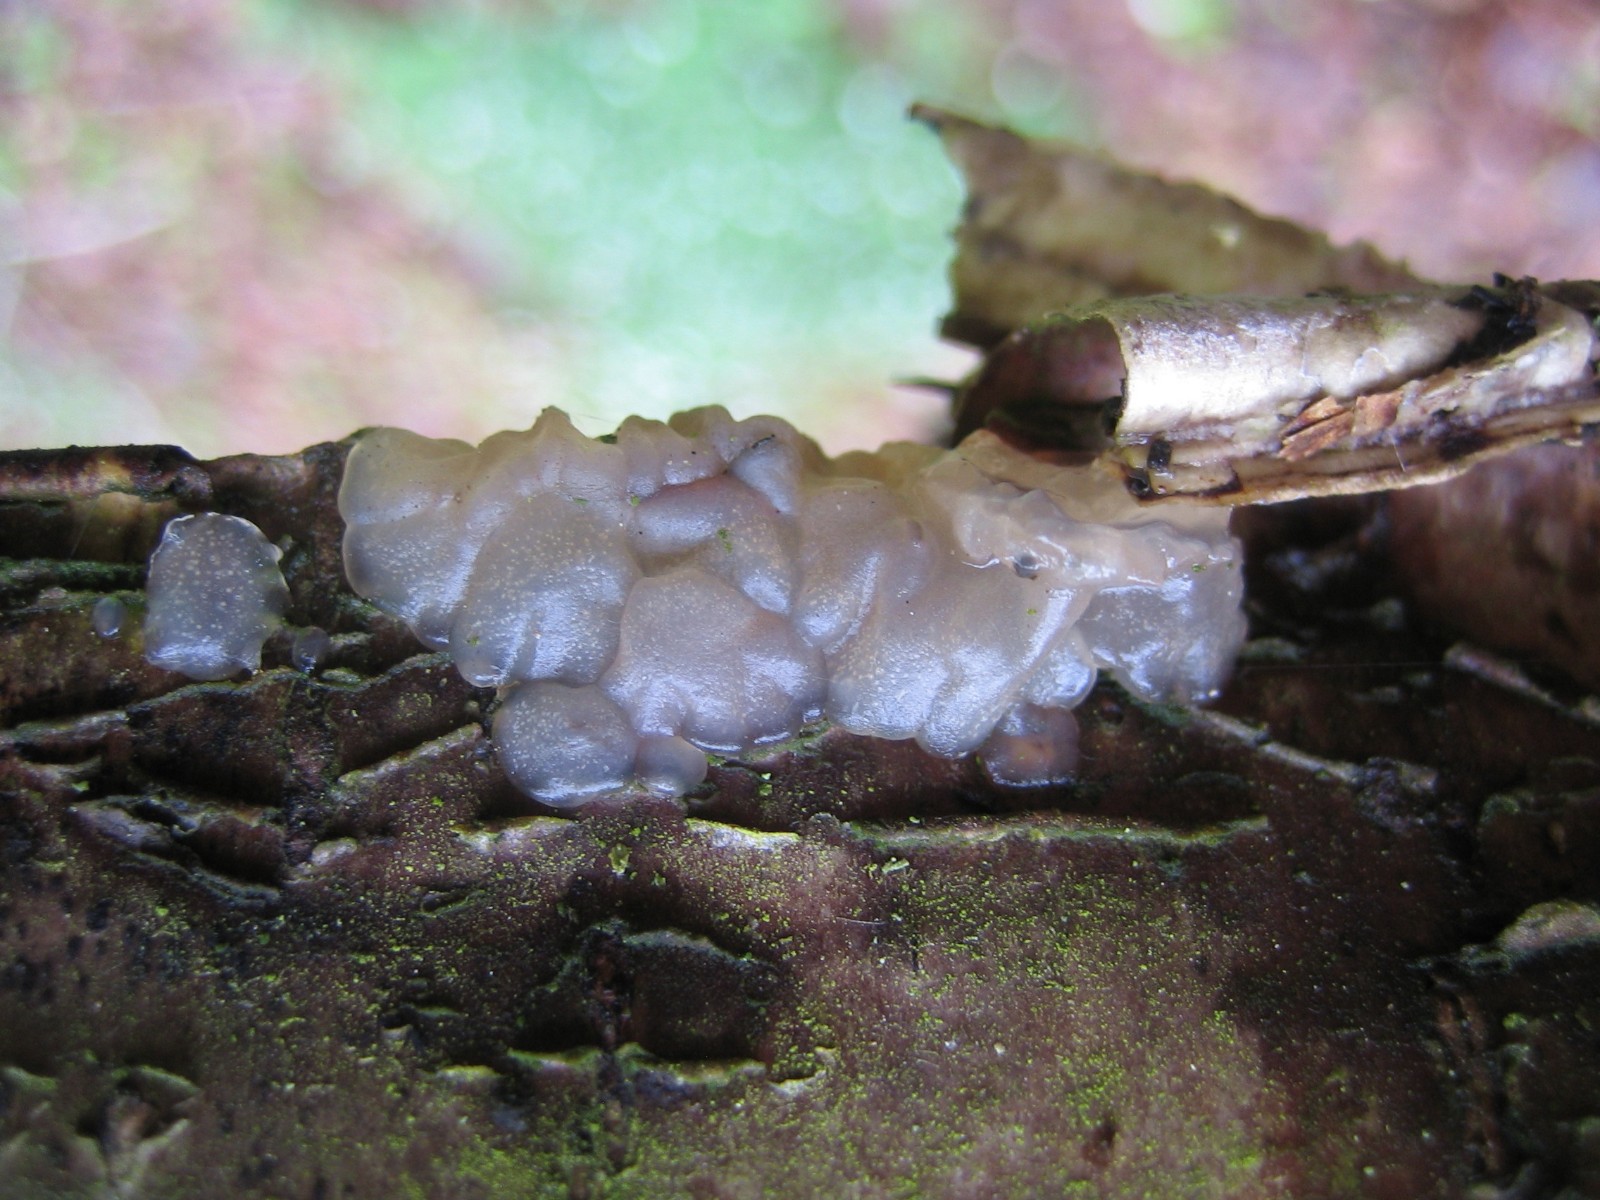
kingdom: Fungi
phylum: Basidiomycota
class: Agaricomycetes
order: Auriculariales
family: Auriculariaceae
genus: Exidia
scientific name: Exidia thuretiana
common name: hvidlig bævretop
